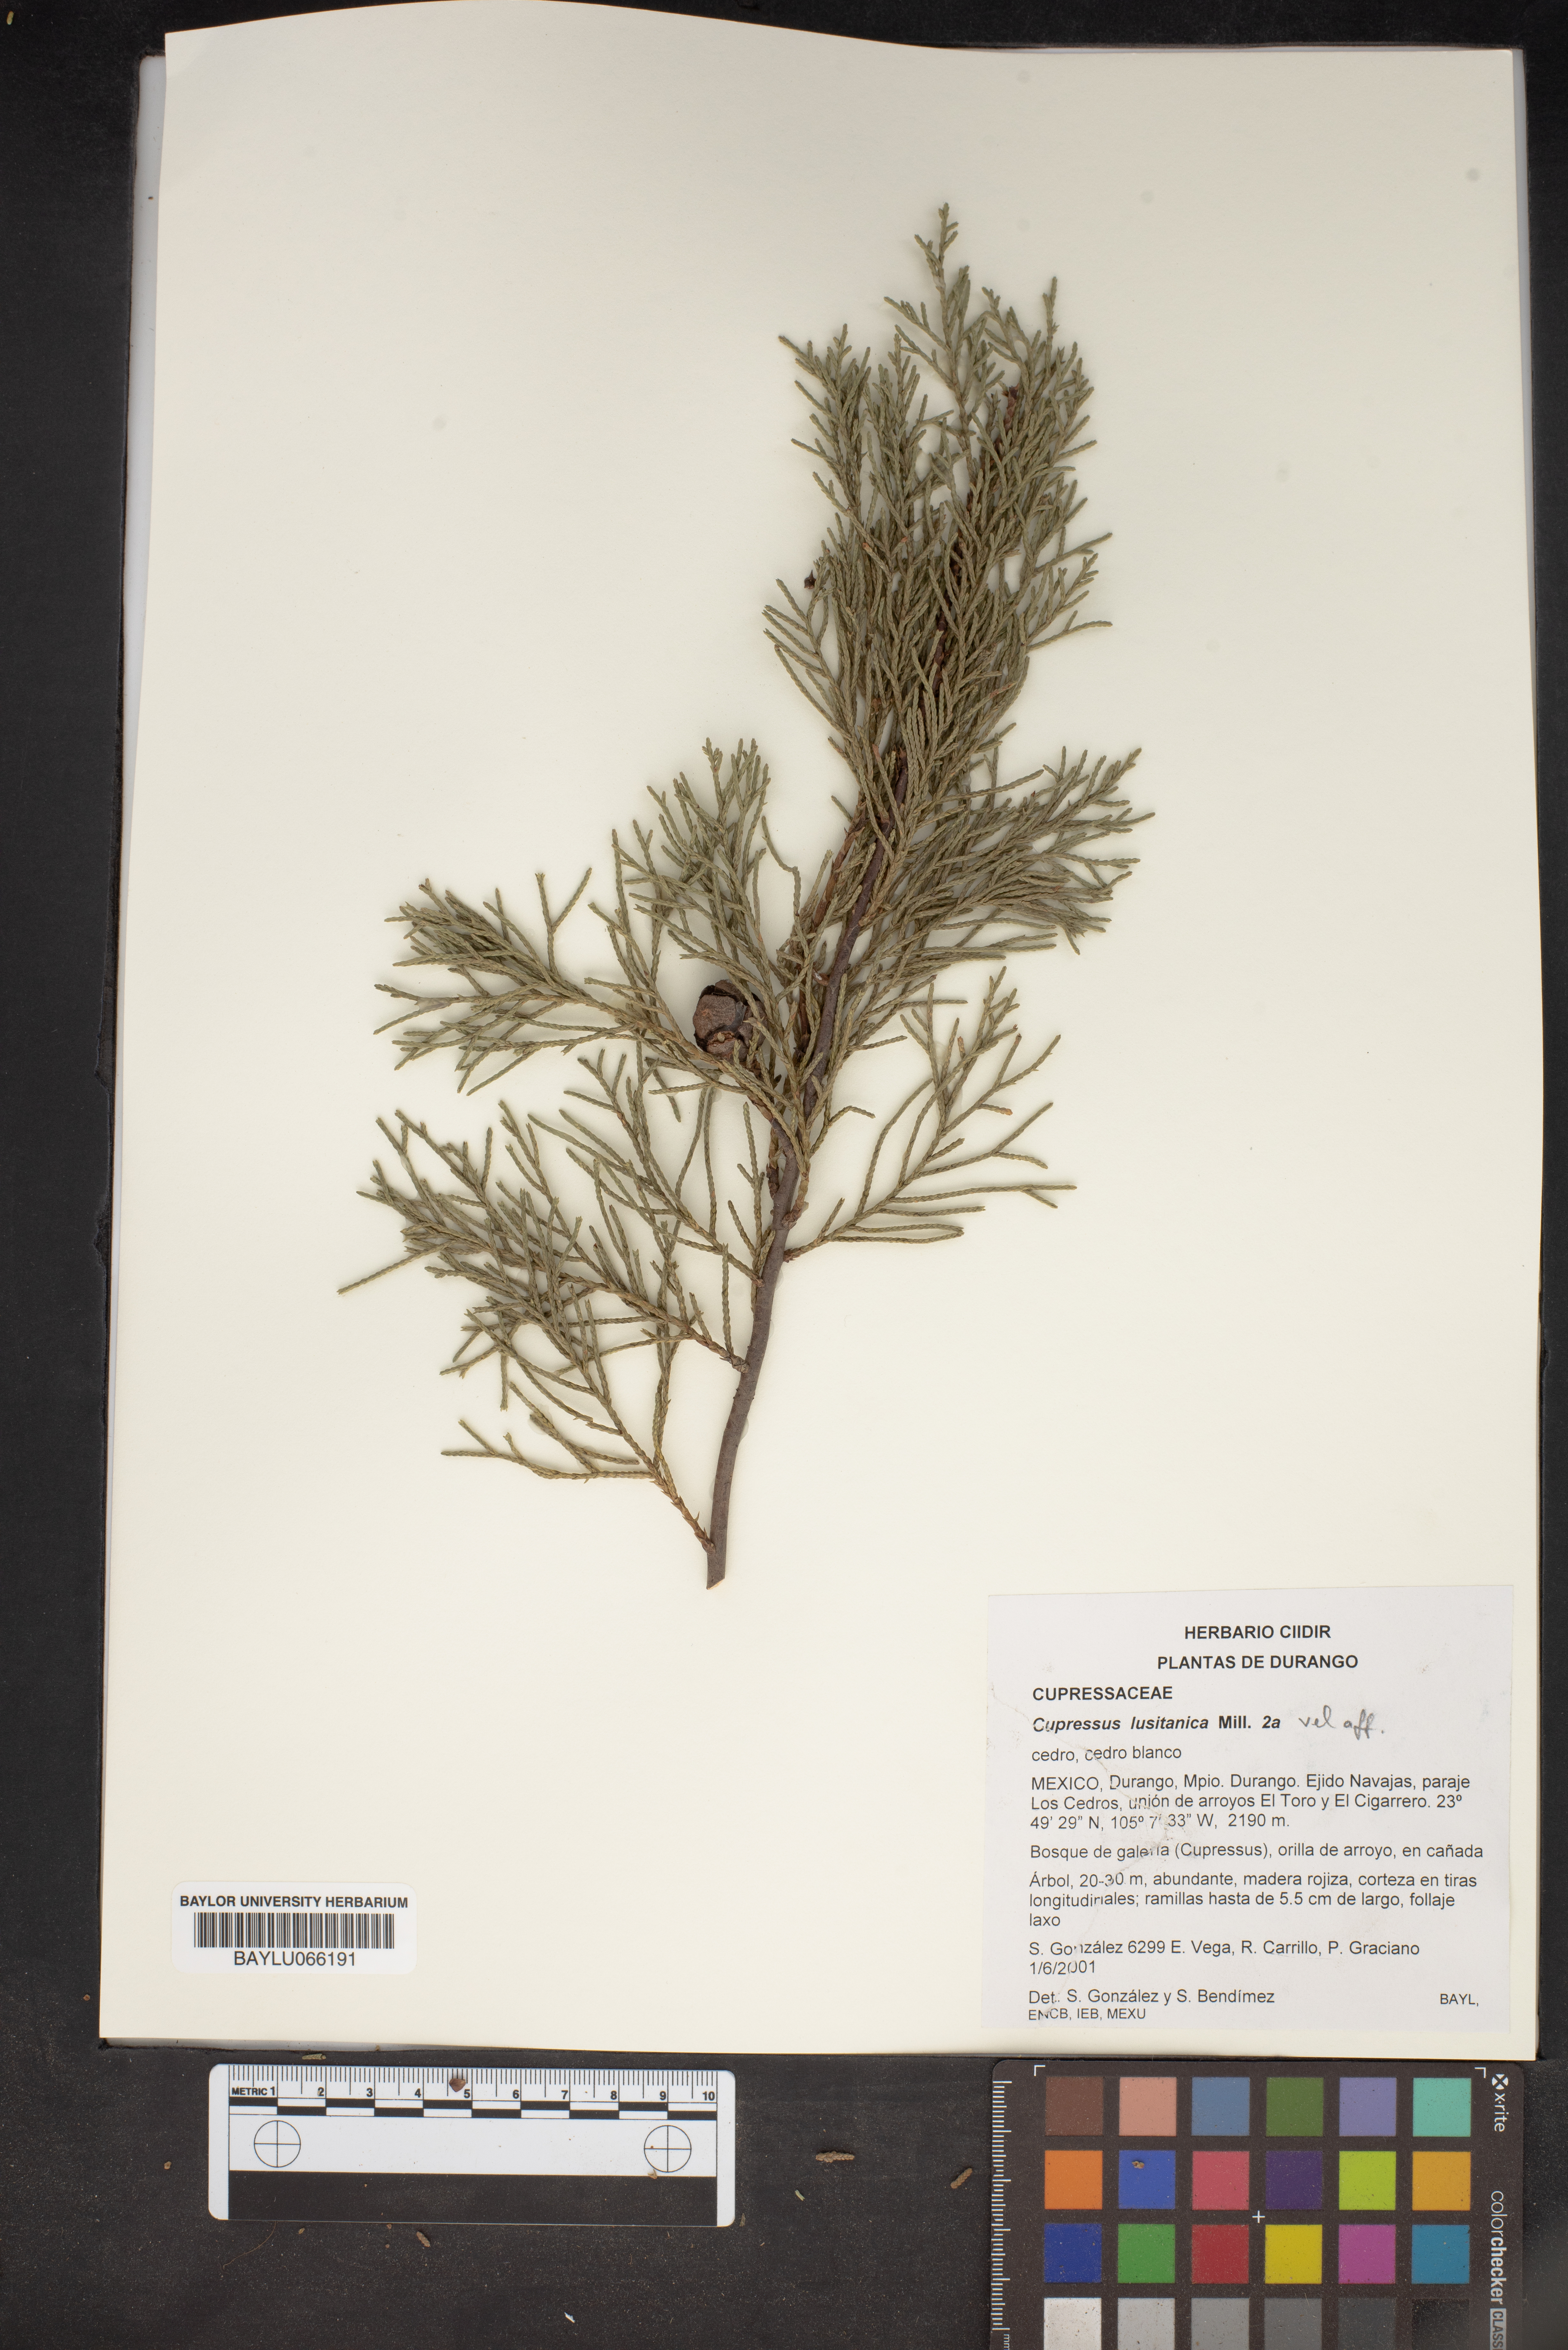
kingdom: Plantae
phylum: Tracheophyta
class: Pinopsida
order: Pinales
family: Cupressaceae
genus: Cupressus
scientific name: Cupressus lusitanica
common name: Mexican cypress
